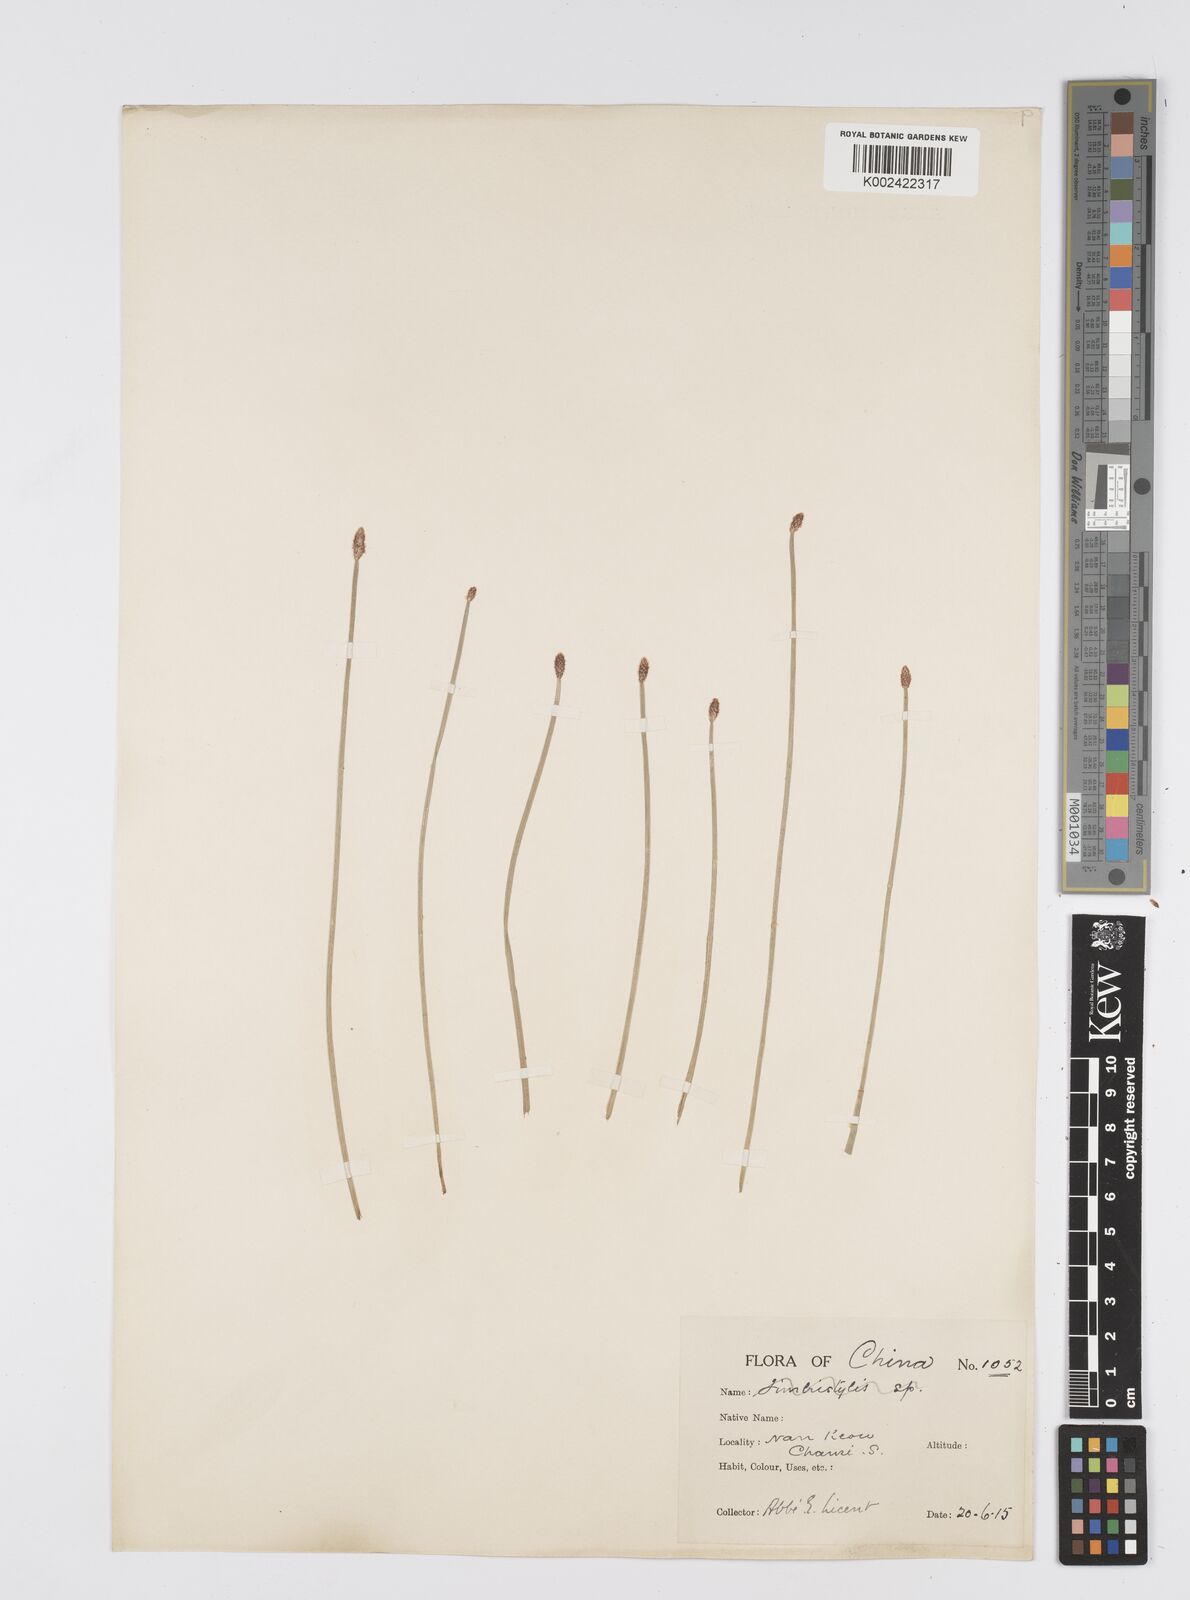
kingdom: Plantae
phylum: Tracheophyta
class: Liliopsida
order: Poales
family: Cyperaceae
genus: Eleocharis
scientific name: Eleocharis
